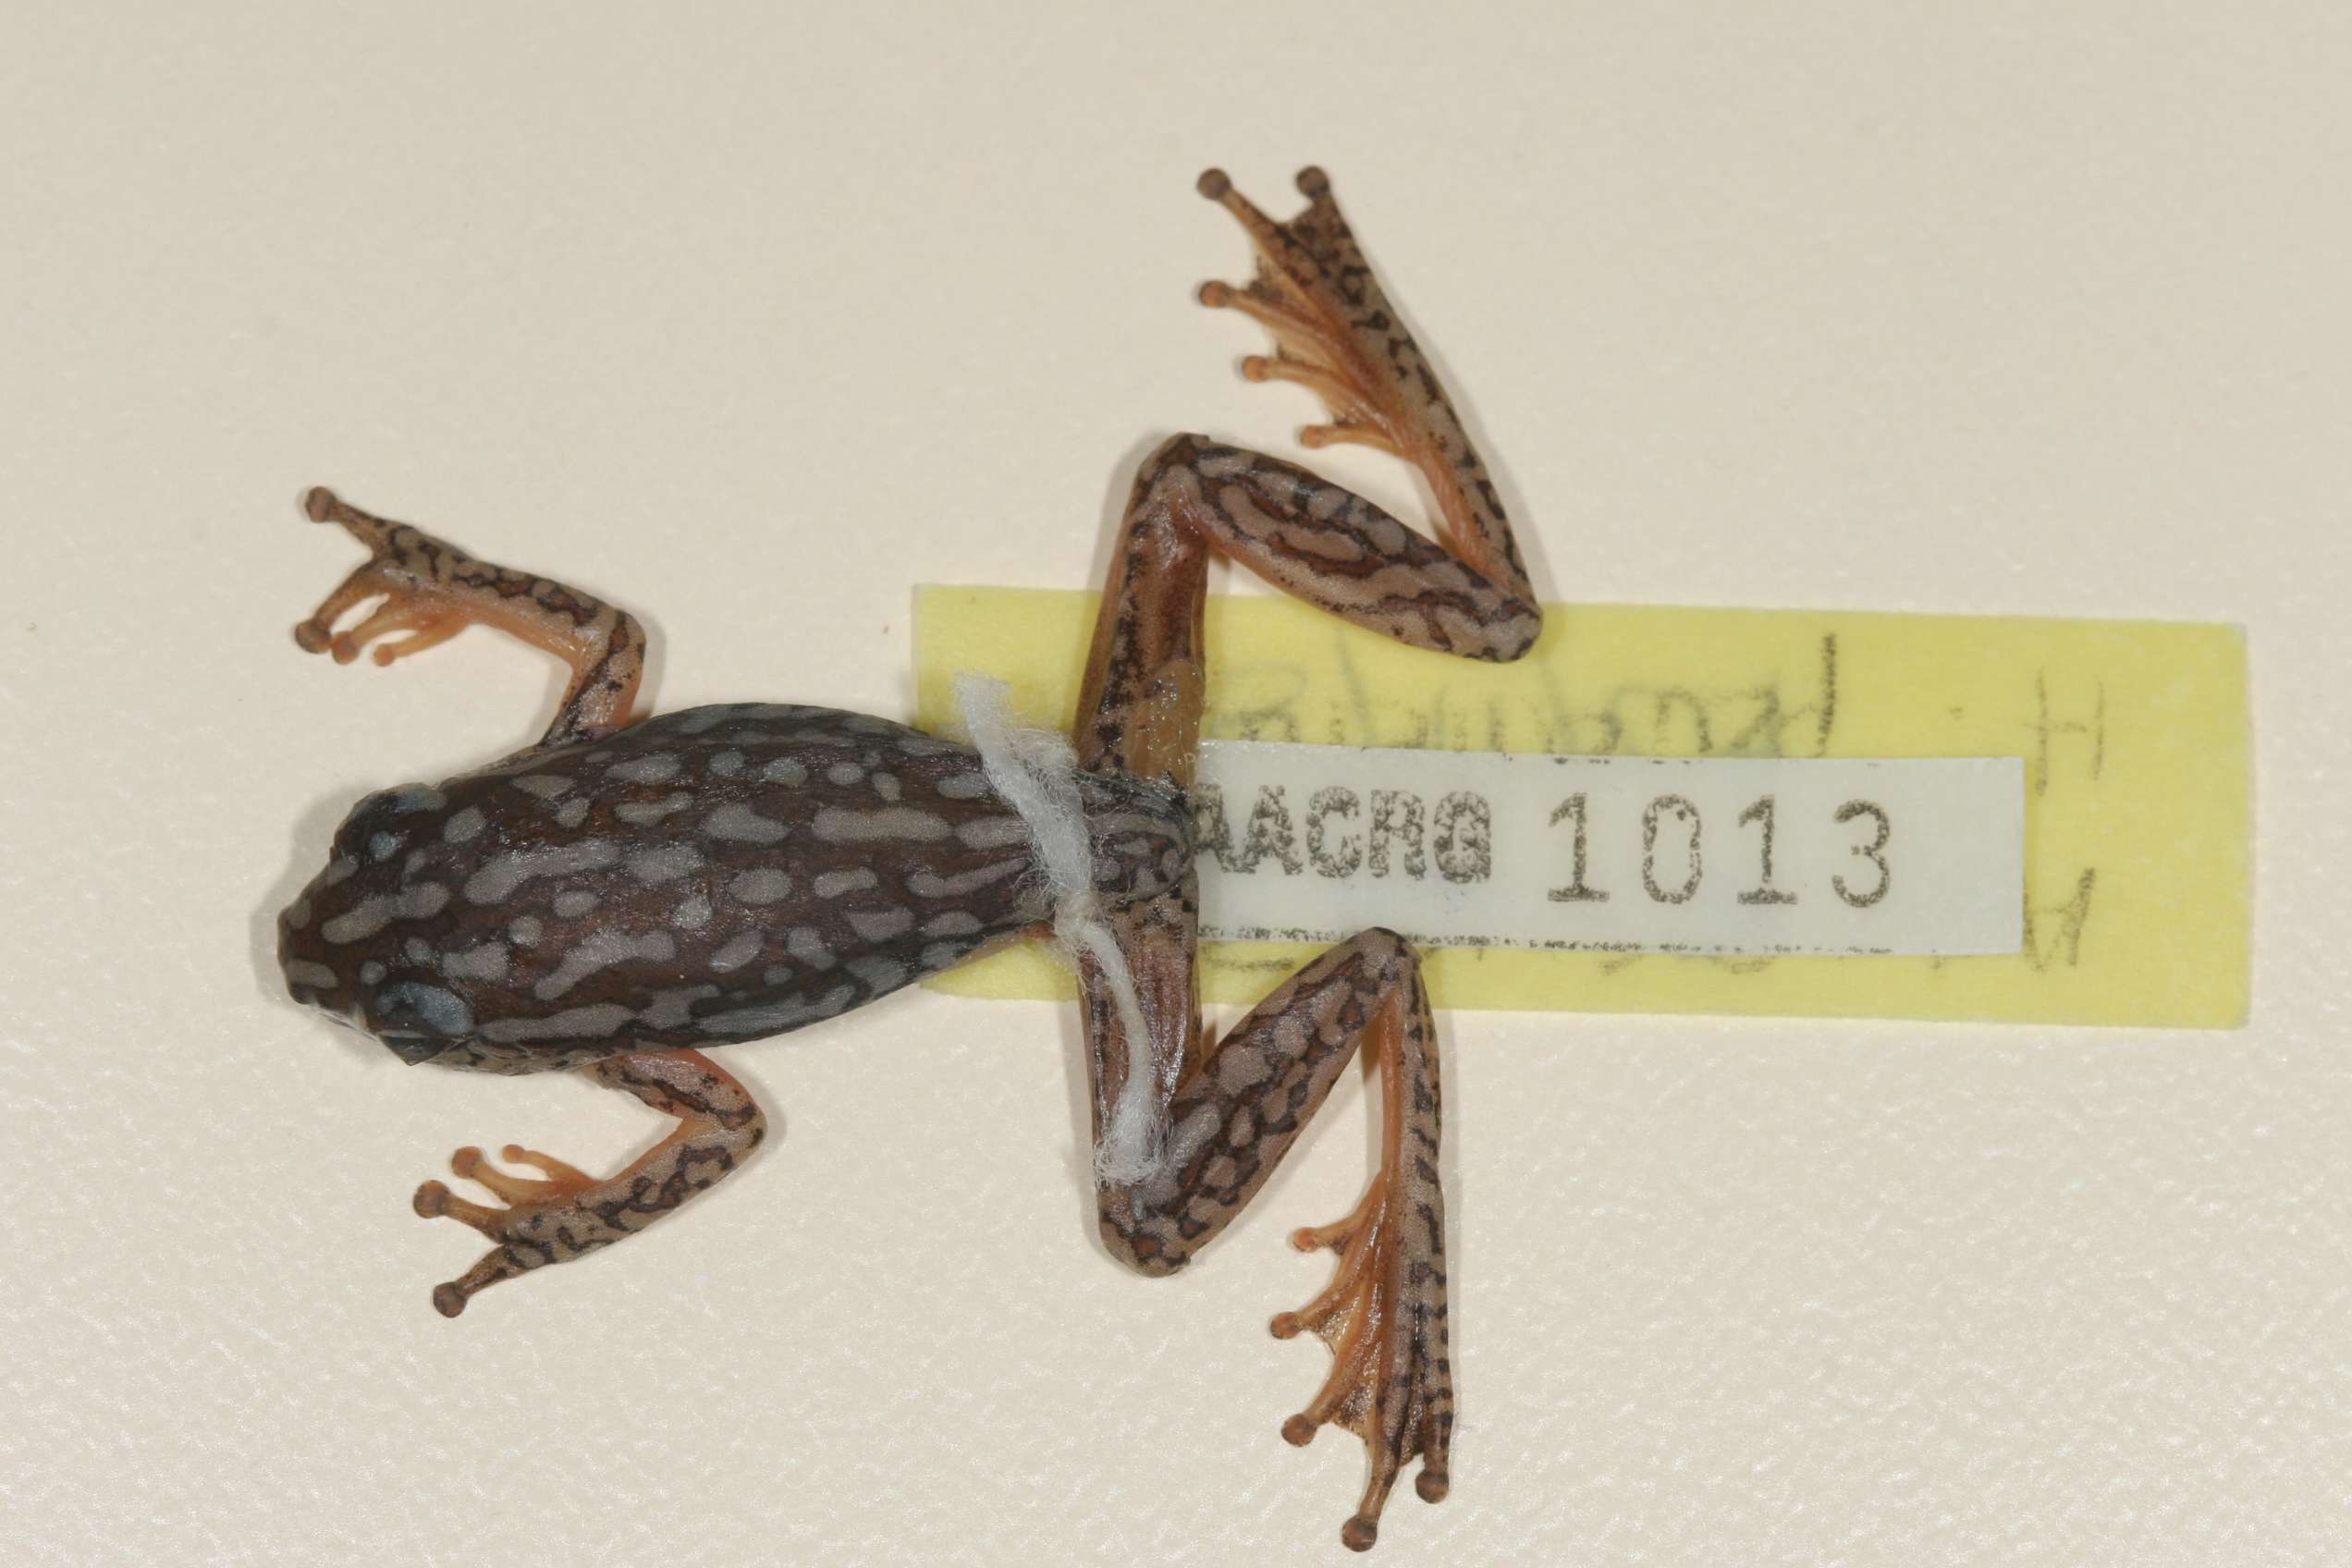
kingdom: Animalia
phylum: Chordata
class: Amphibia
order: Anura
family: Hyperoliidae
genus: Hyperolius
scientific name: Hyperolius parallelus
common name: Angolan reed frog
